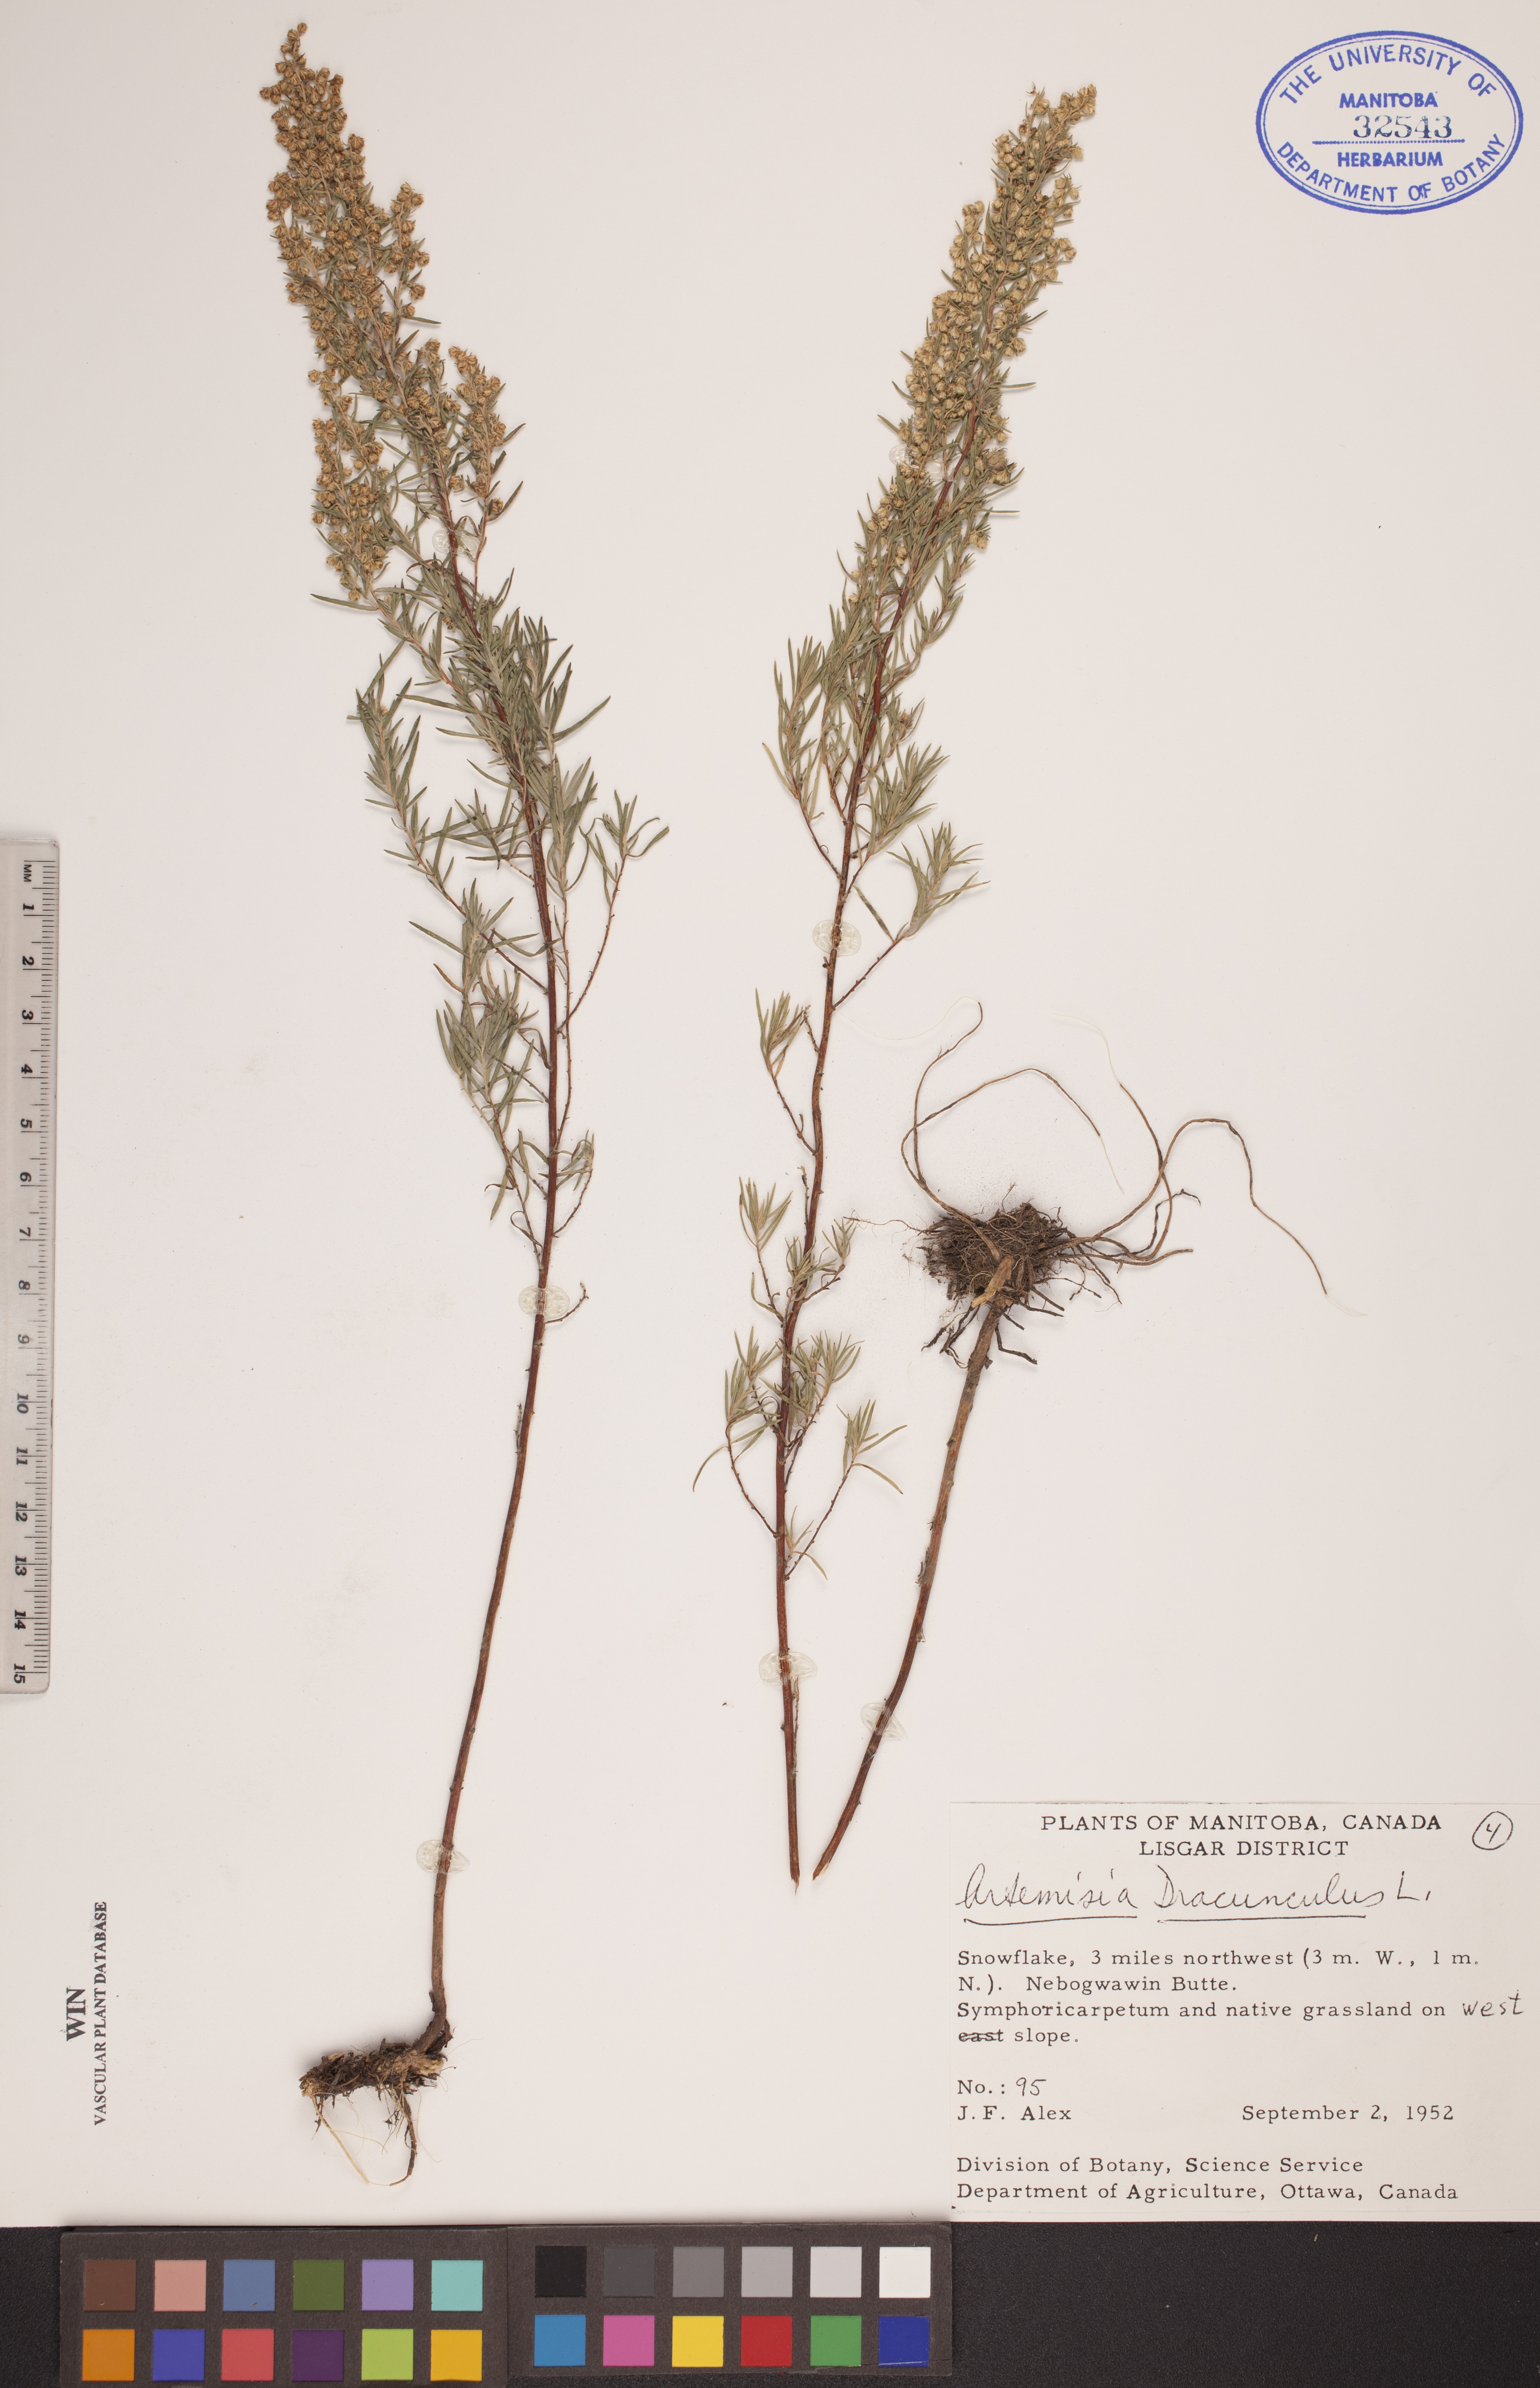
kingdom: Plantae
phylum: Tracheophyta
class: Magnoliopsida
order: Asterales
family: Asteraceae
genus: Artemisia
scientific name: Artemisia dracunculus
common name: Tarragon
